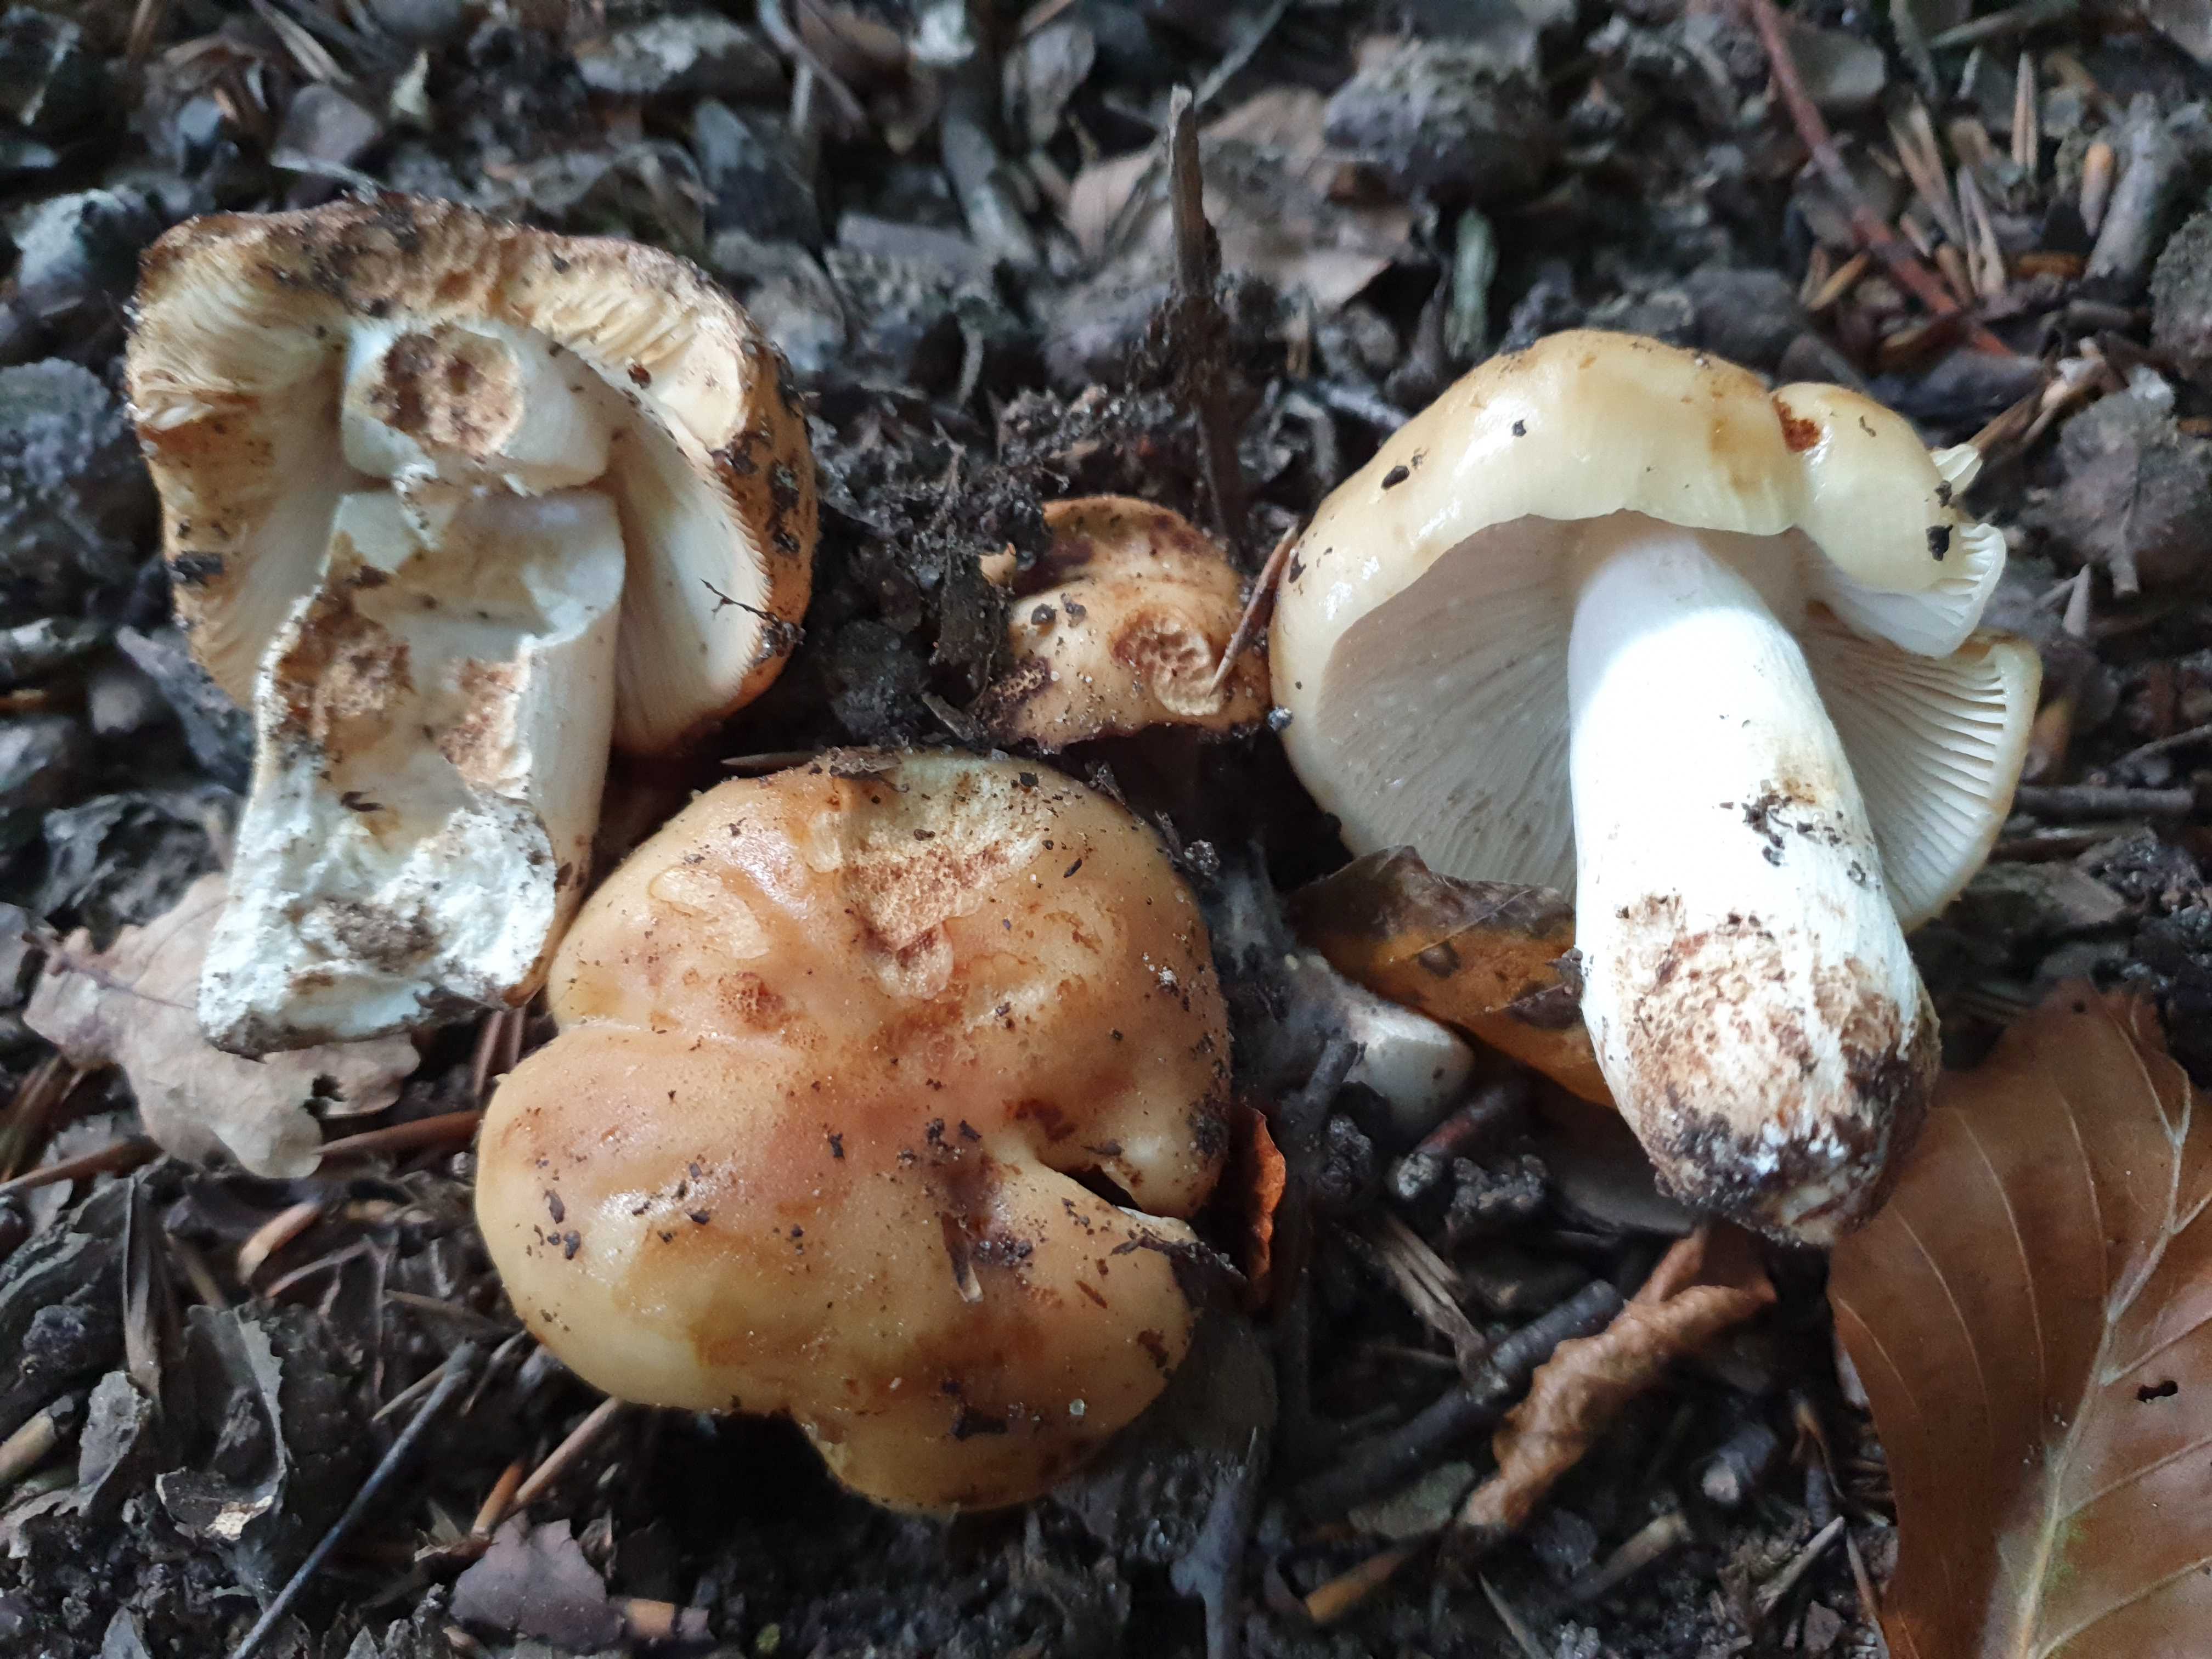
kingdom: Fungi
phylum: Basidiomycota
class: Agaricomycetes
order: Russulales
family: Russulaceae
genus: Russula
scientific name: Russula grata
